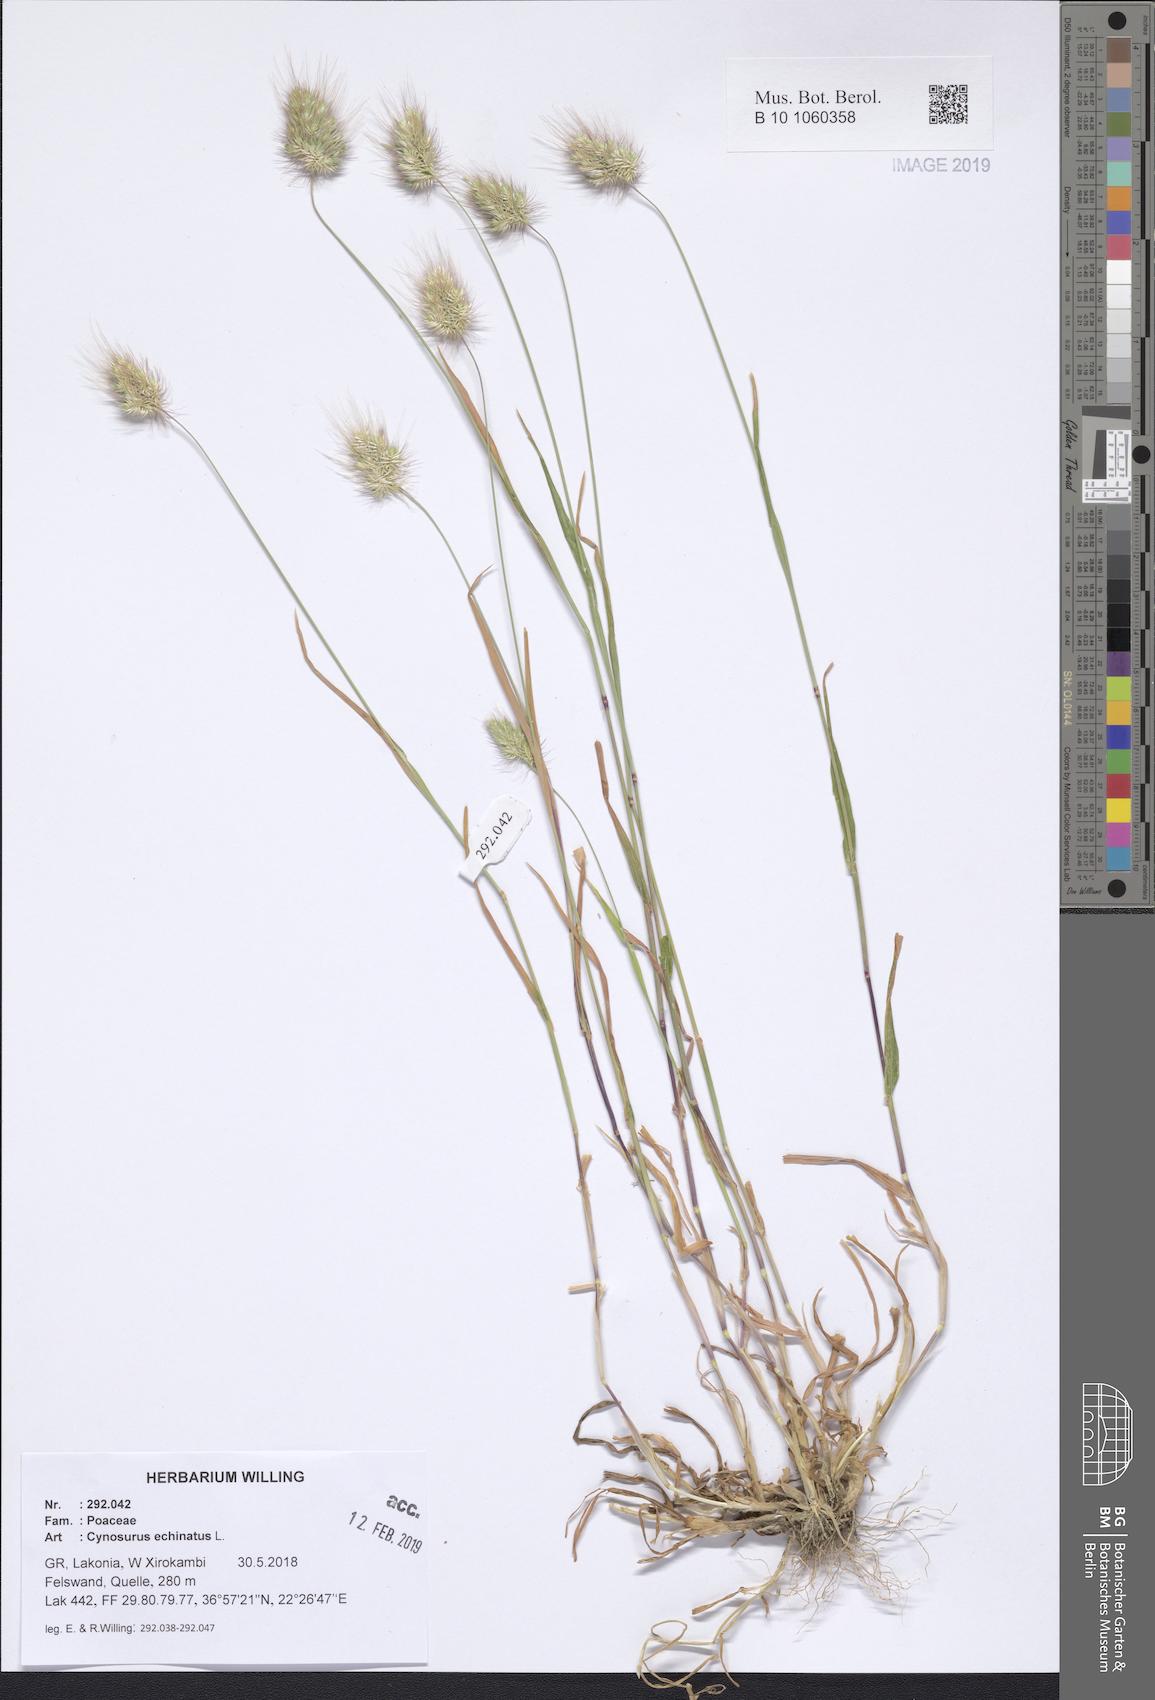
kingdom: Plantae
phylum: Tracheophyta
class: Liliopsida
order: Poales
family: Poaceae
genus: Cynosurus
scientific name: Cynosurus echinatus
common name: Rough dog's-tail
